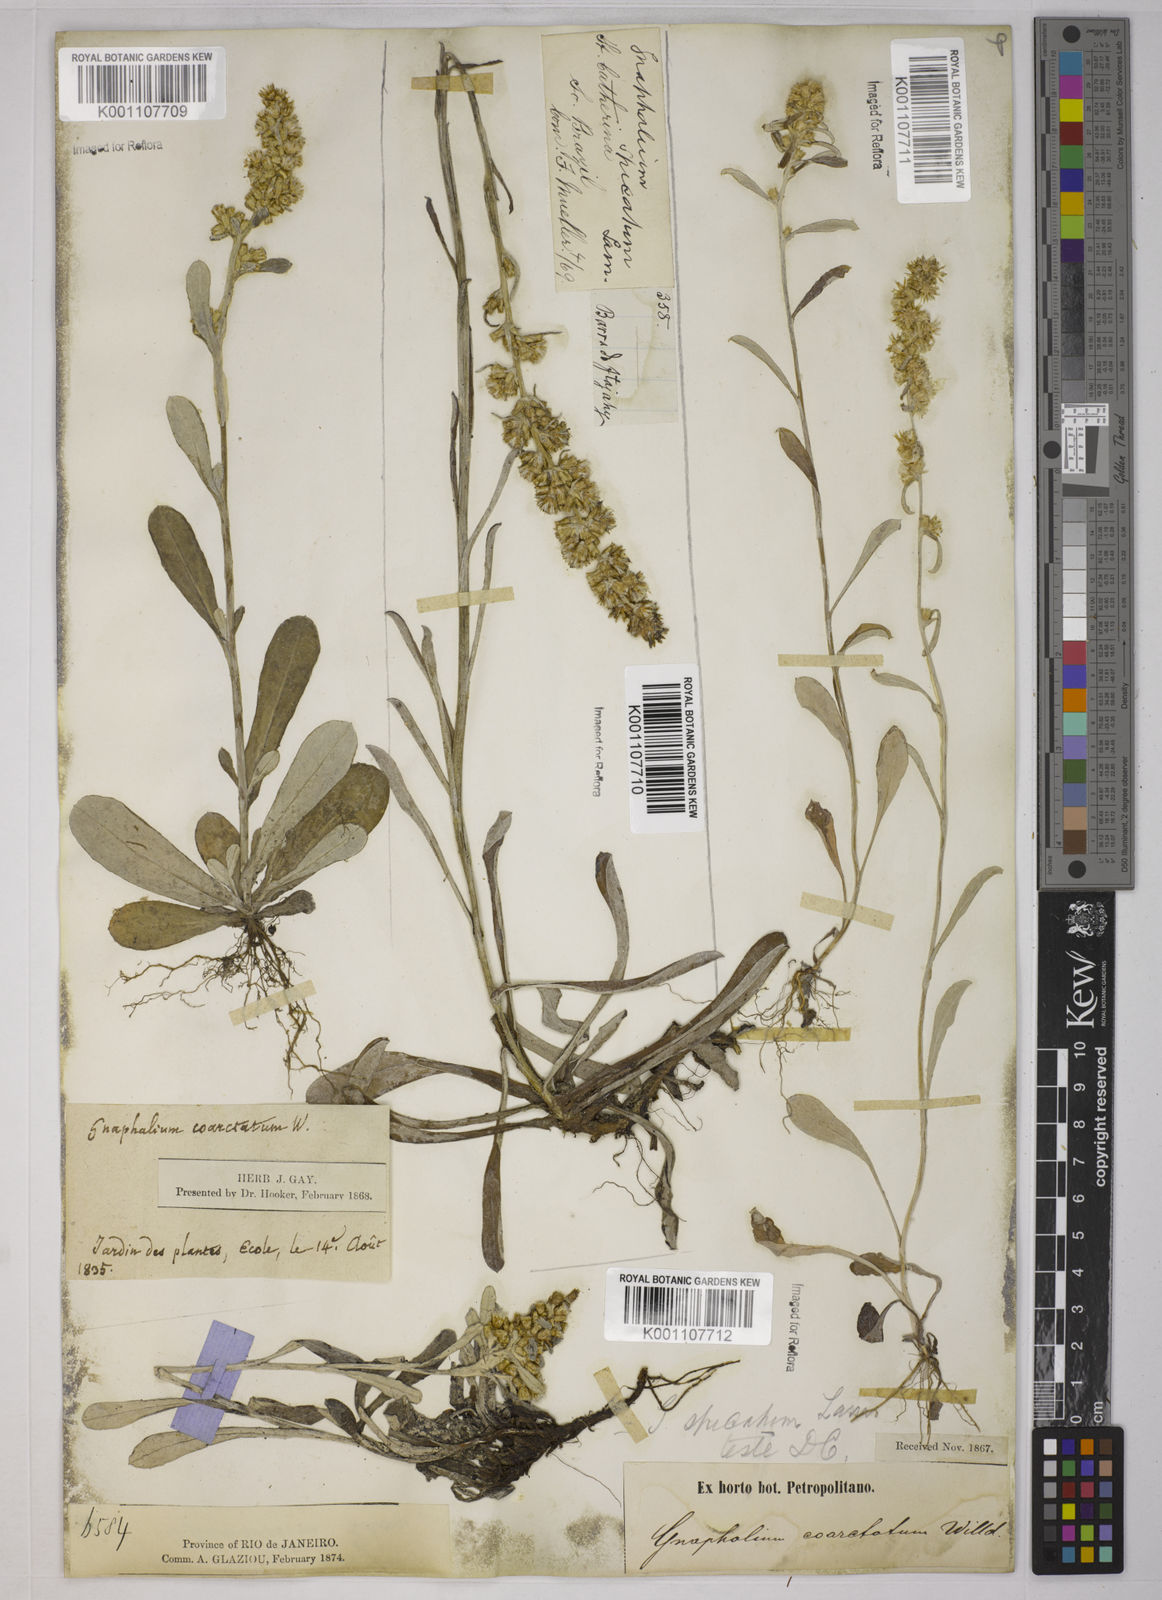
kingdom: Plantae
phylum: Tracheophyta
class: Magnoliopsida
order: Asterales
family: Asteraceae
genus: Pterocaulon
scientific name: Pterocaulon virgatum
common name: Wand blackroot
